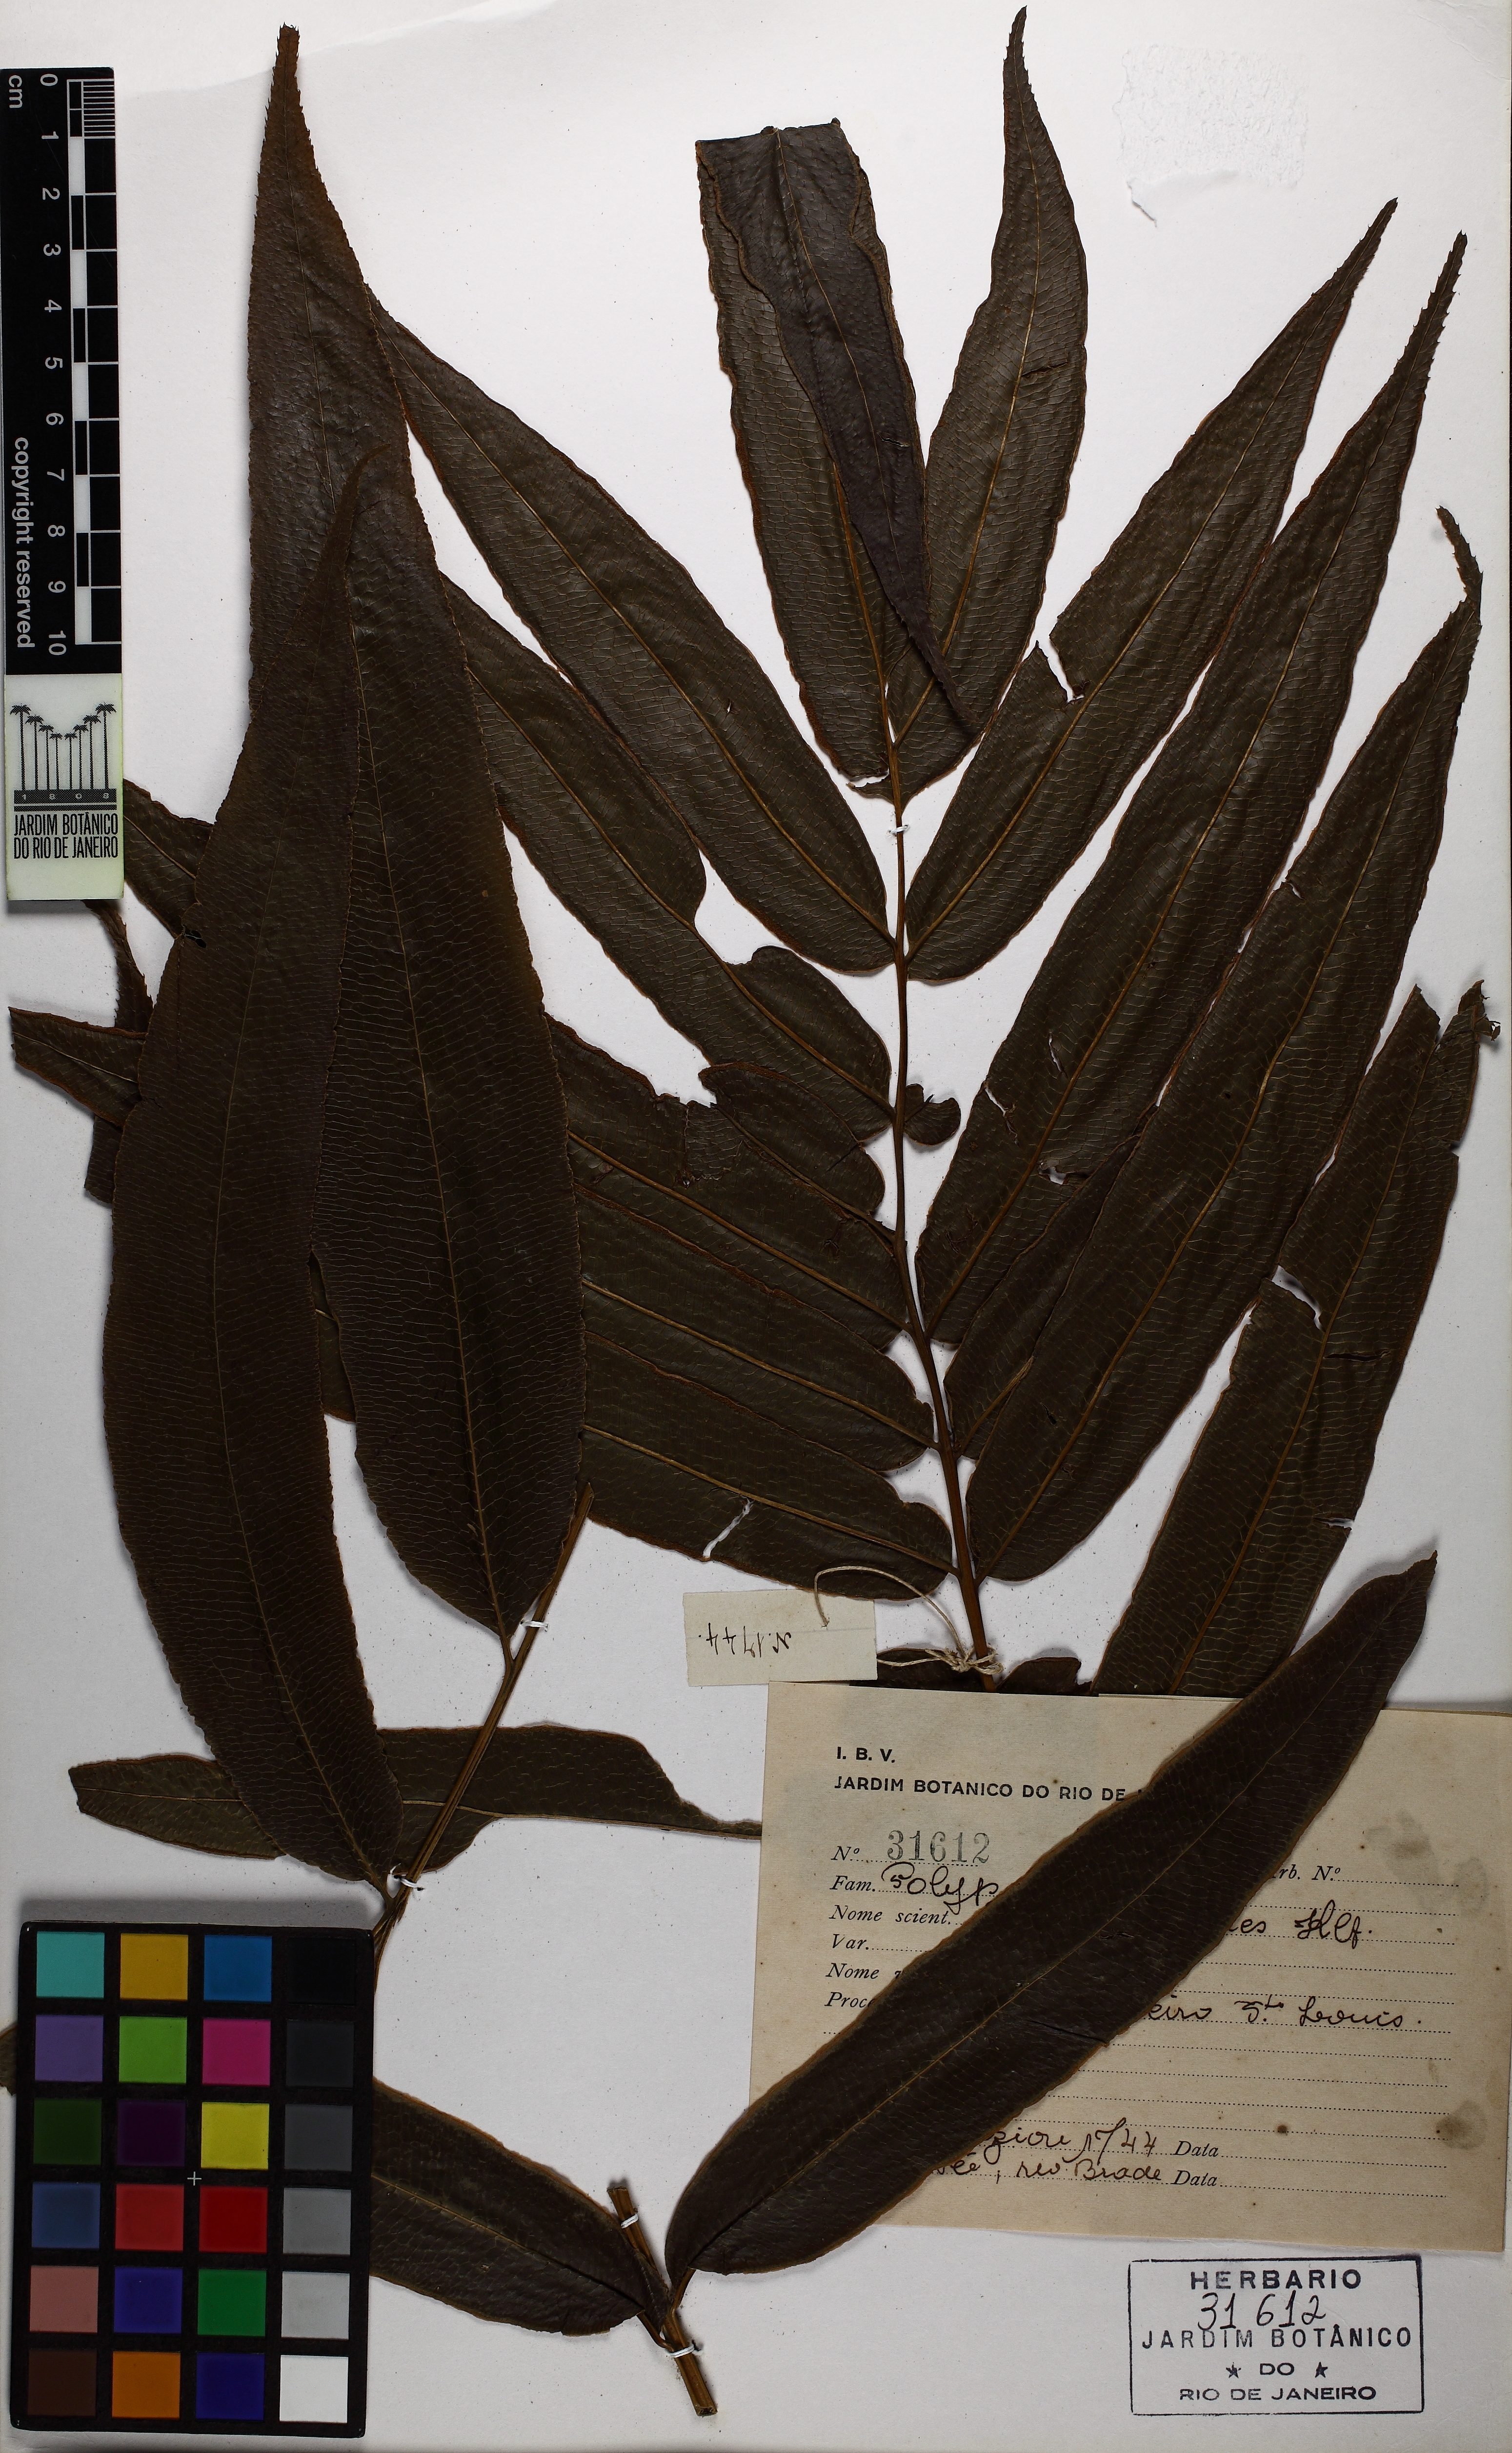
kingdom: Plantae
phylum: Tracheophyta
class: Polypodiopsida
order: Polypodiales
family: Pteridaceae
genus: Pteris
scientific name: Pteris splendens
